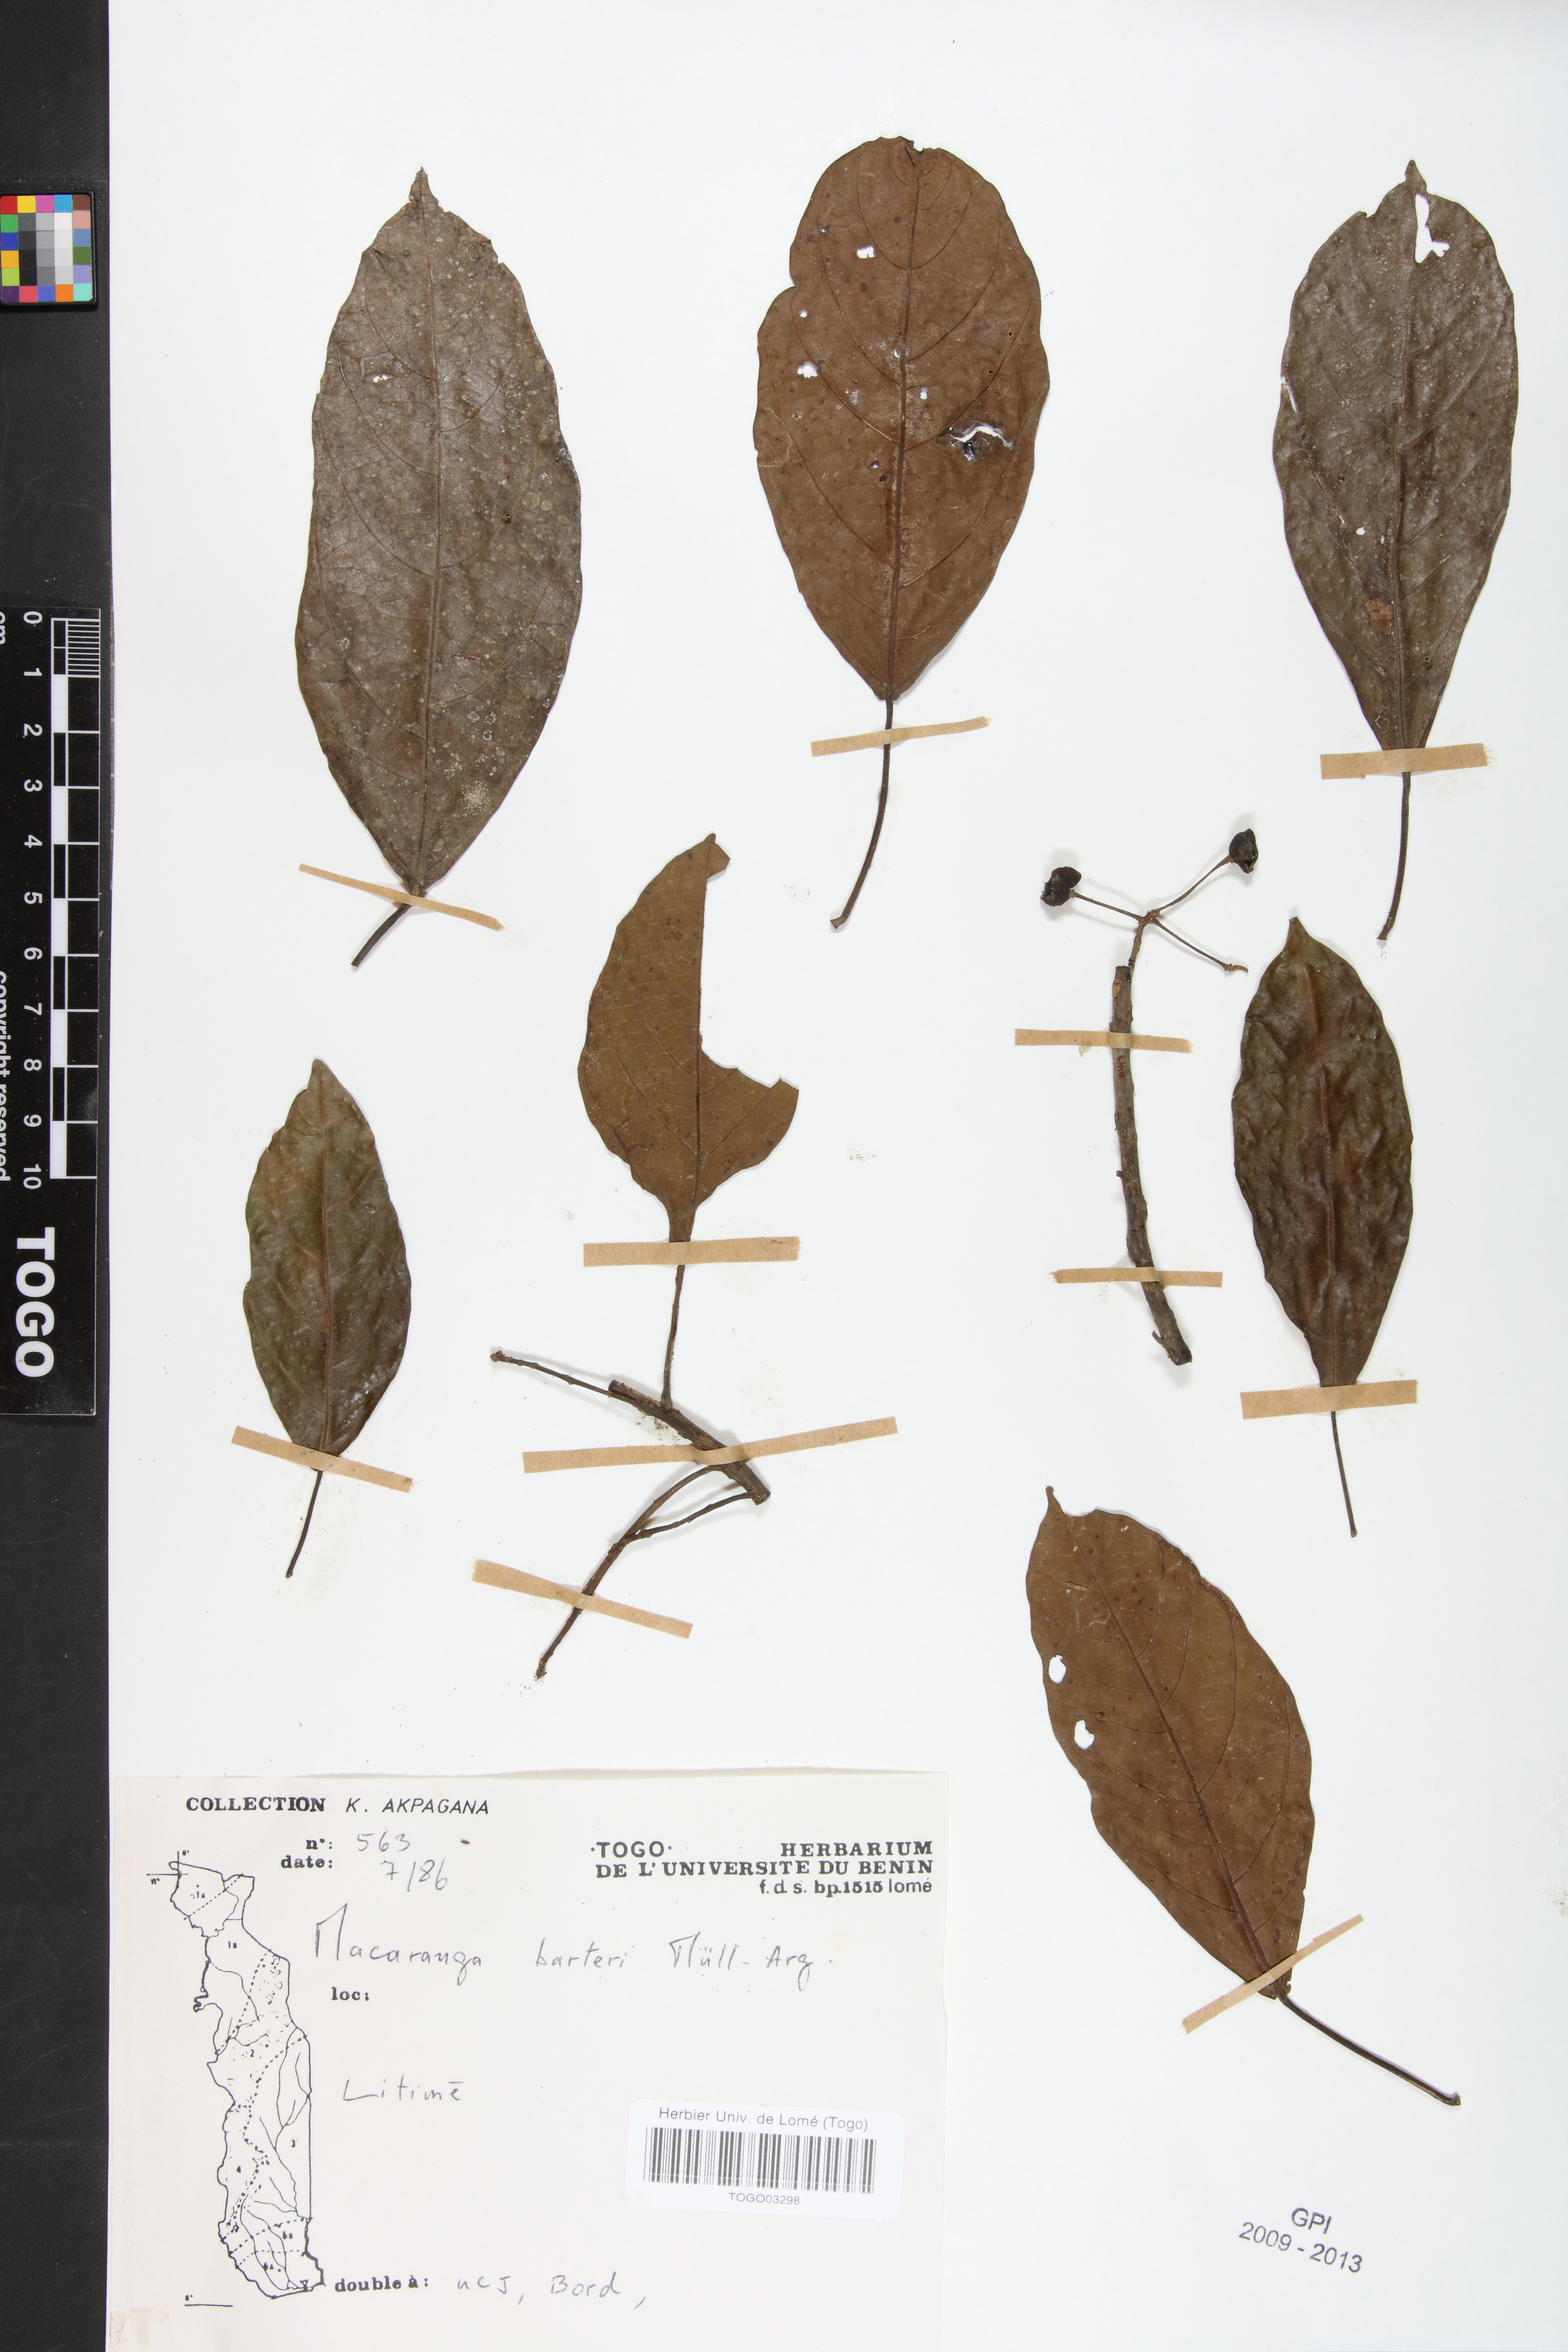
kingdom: Plantae
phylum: Tracheophyta
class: Magnoliopsida
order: Malpighiales
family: Euphorbiaceae
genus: Macaranga
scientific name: Macaranga barteri
